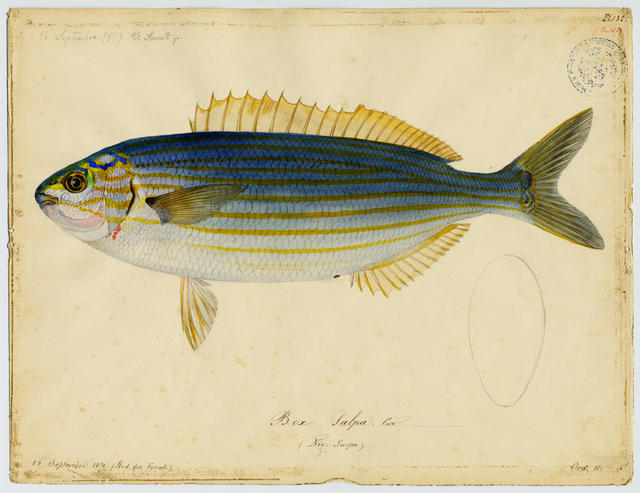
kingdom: Animalia
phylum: Chordata
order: Perciformes
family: Sparidae
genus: Sarpa
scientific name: Sarpa salpa
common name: Salema
